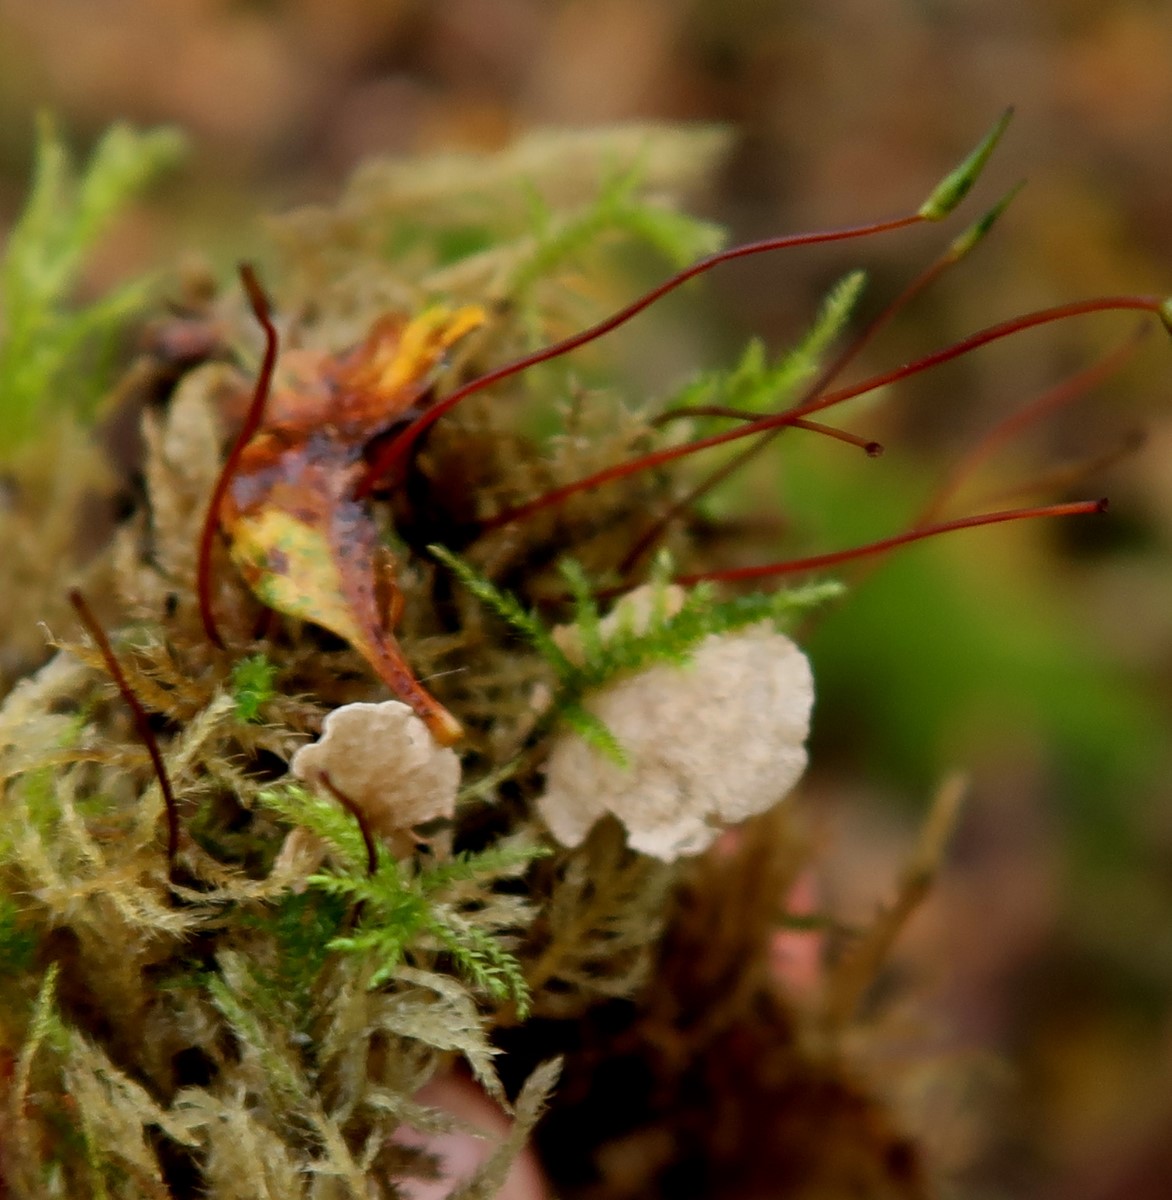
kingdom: Fungi
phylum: Basidiomycota
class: Agaricomycetes
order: Agaricales
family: Hygrophoraceae
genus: Arrhenia
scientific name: Arrhenia retiruga
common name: lille fontænehat
